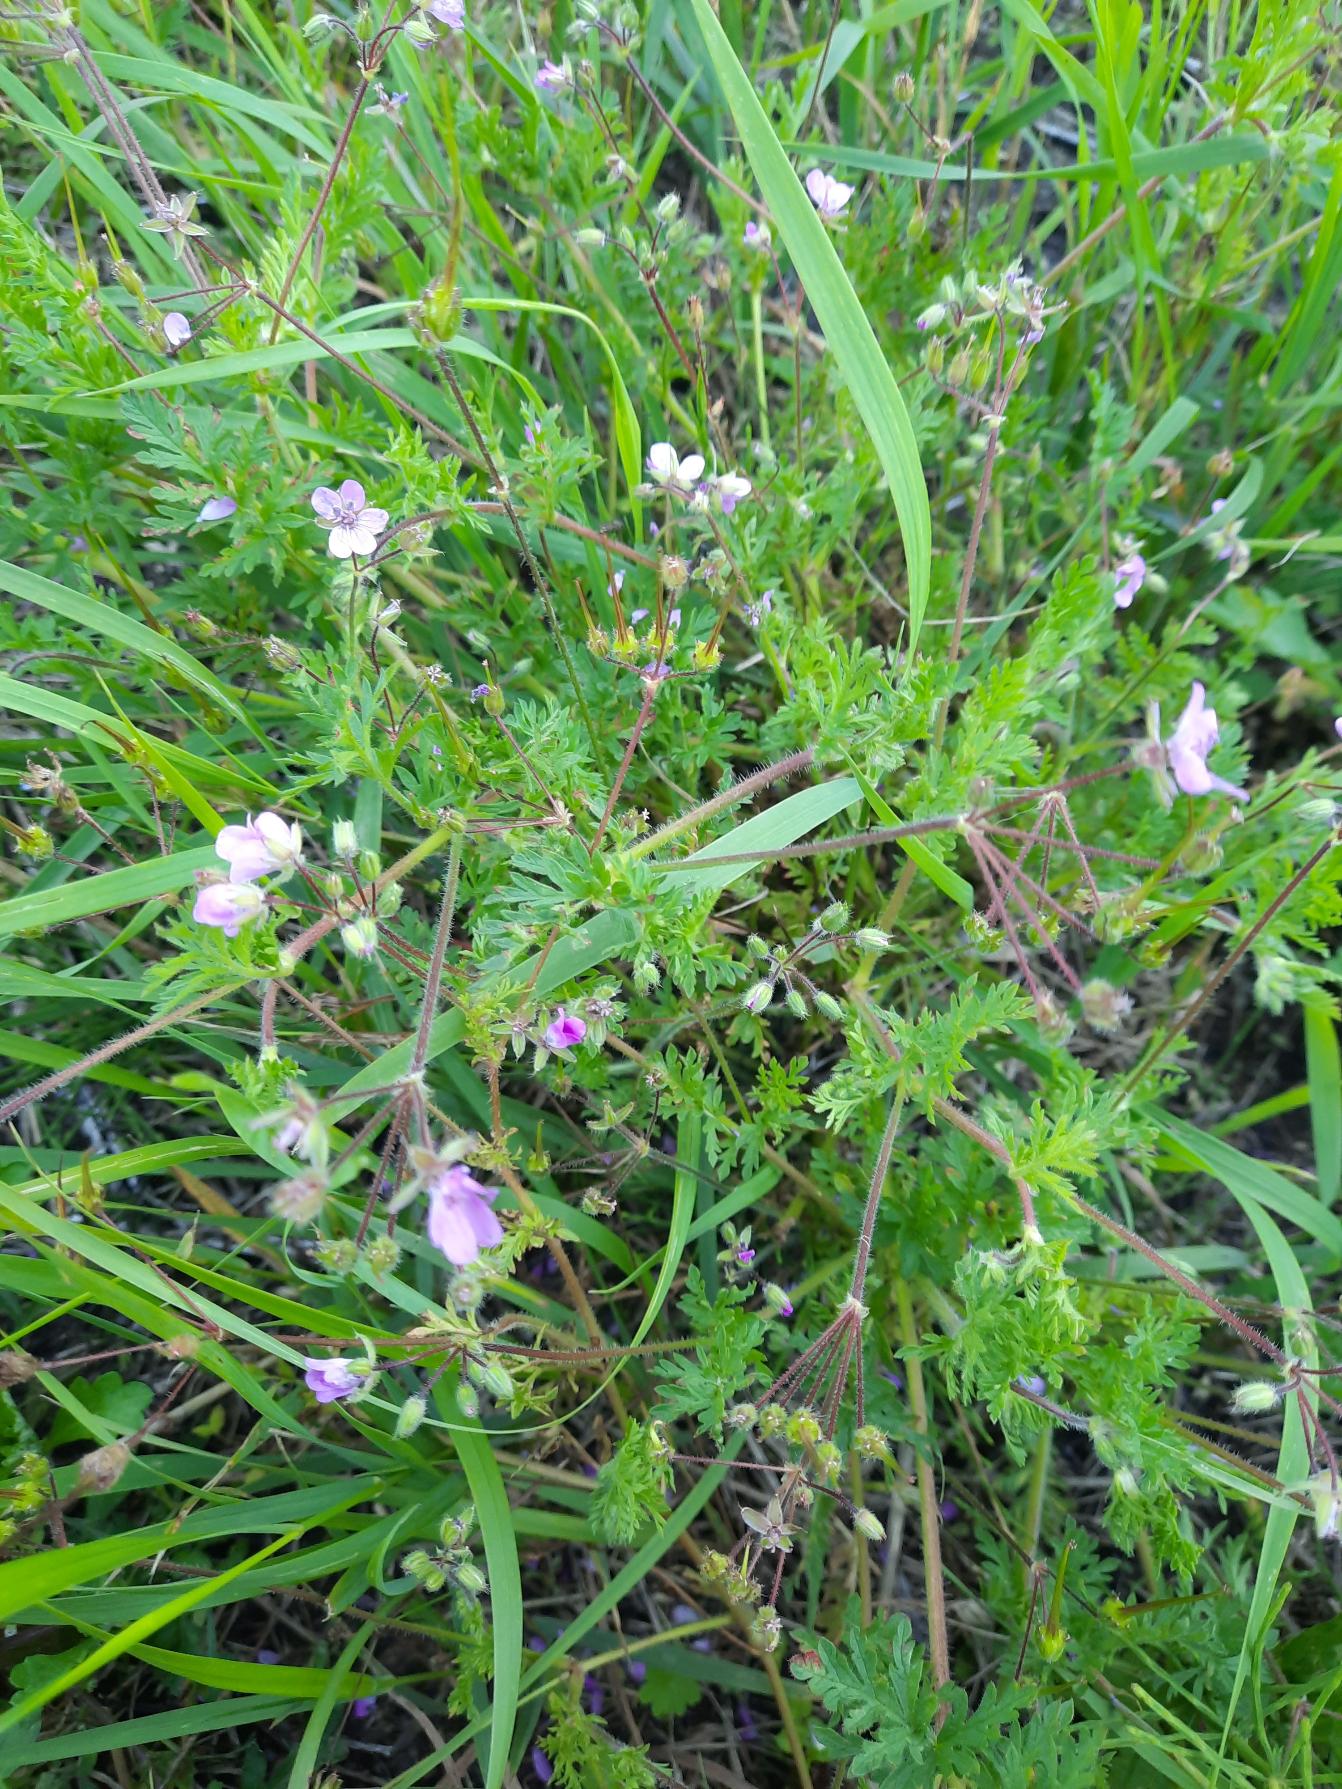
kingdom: Plantae
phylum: Tracheophyta
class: Magnoliopsida
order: Geraniales
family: Geraniaceae
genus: Erodium
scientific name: Erodium cicutarium
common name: Hejrenæb
